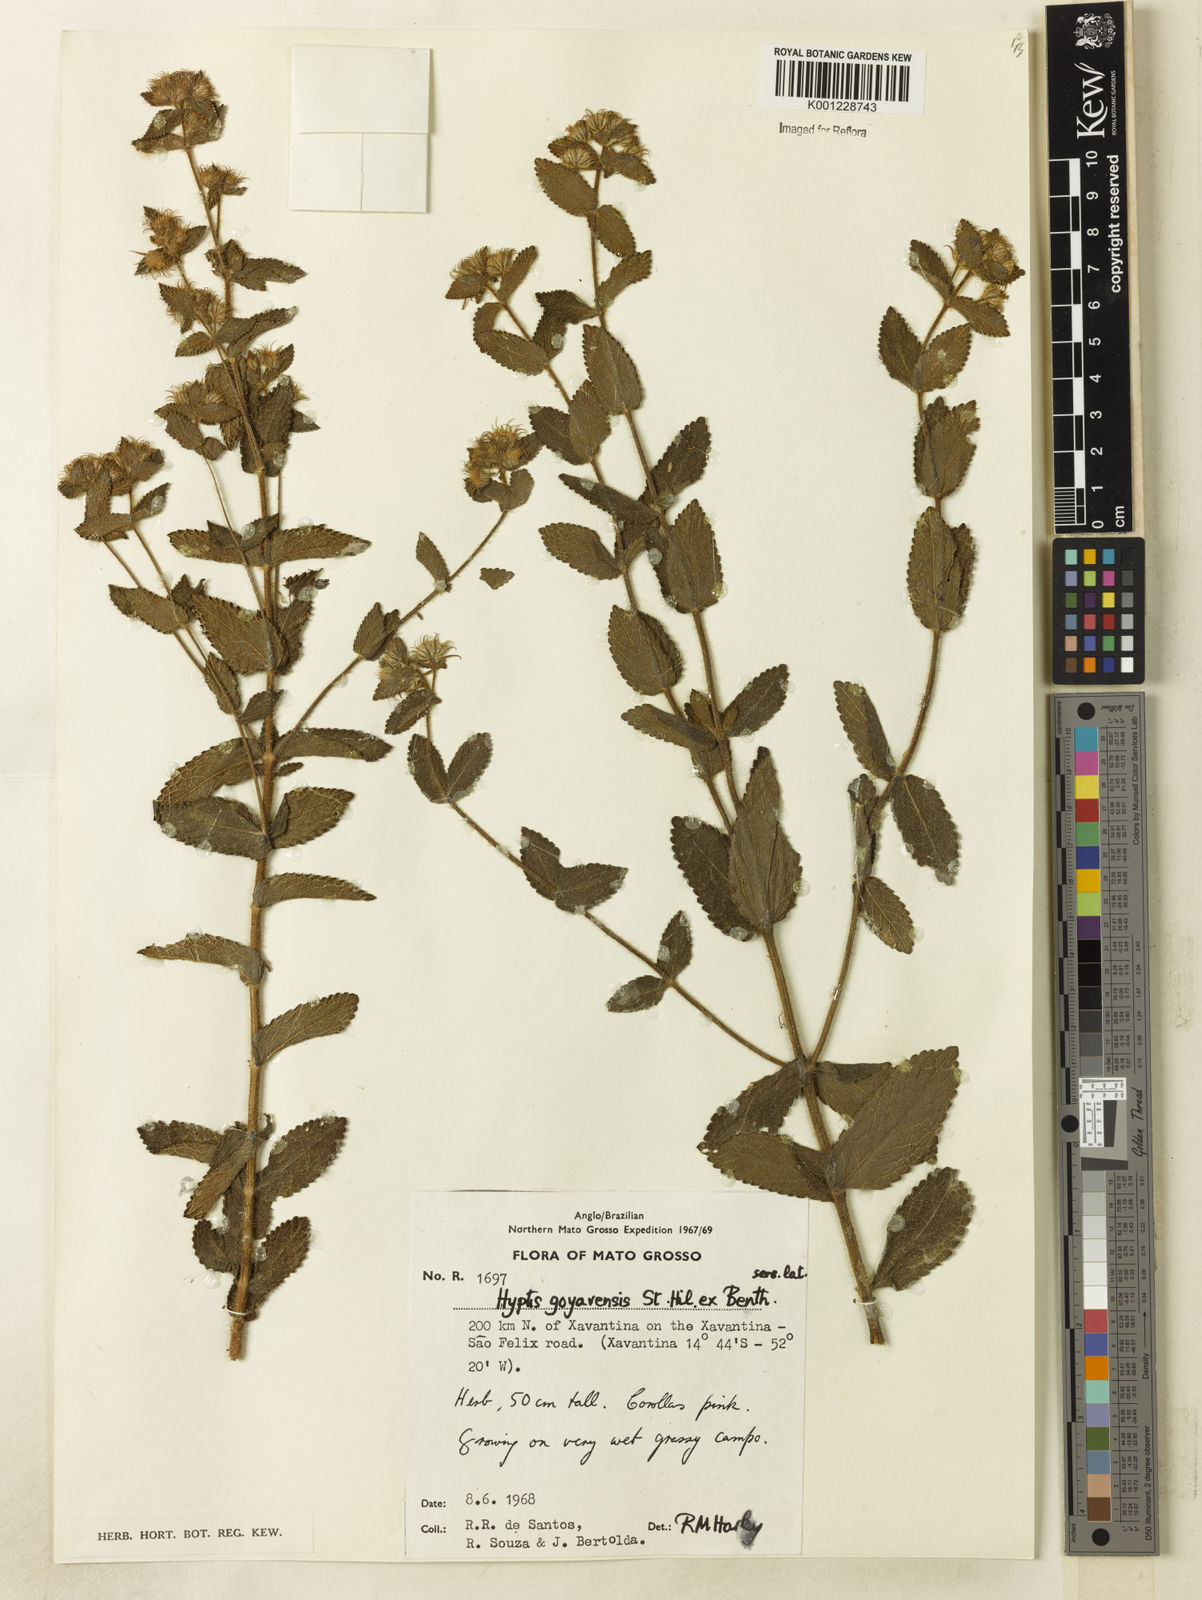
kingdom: Plantae
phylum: Tracheophyta
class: Magnoliopsida
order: Lamiales
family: Lamiaceae
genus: Hyptis
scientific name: Hyptis crenata
